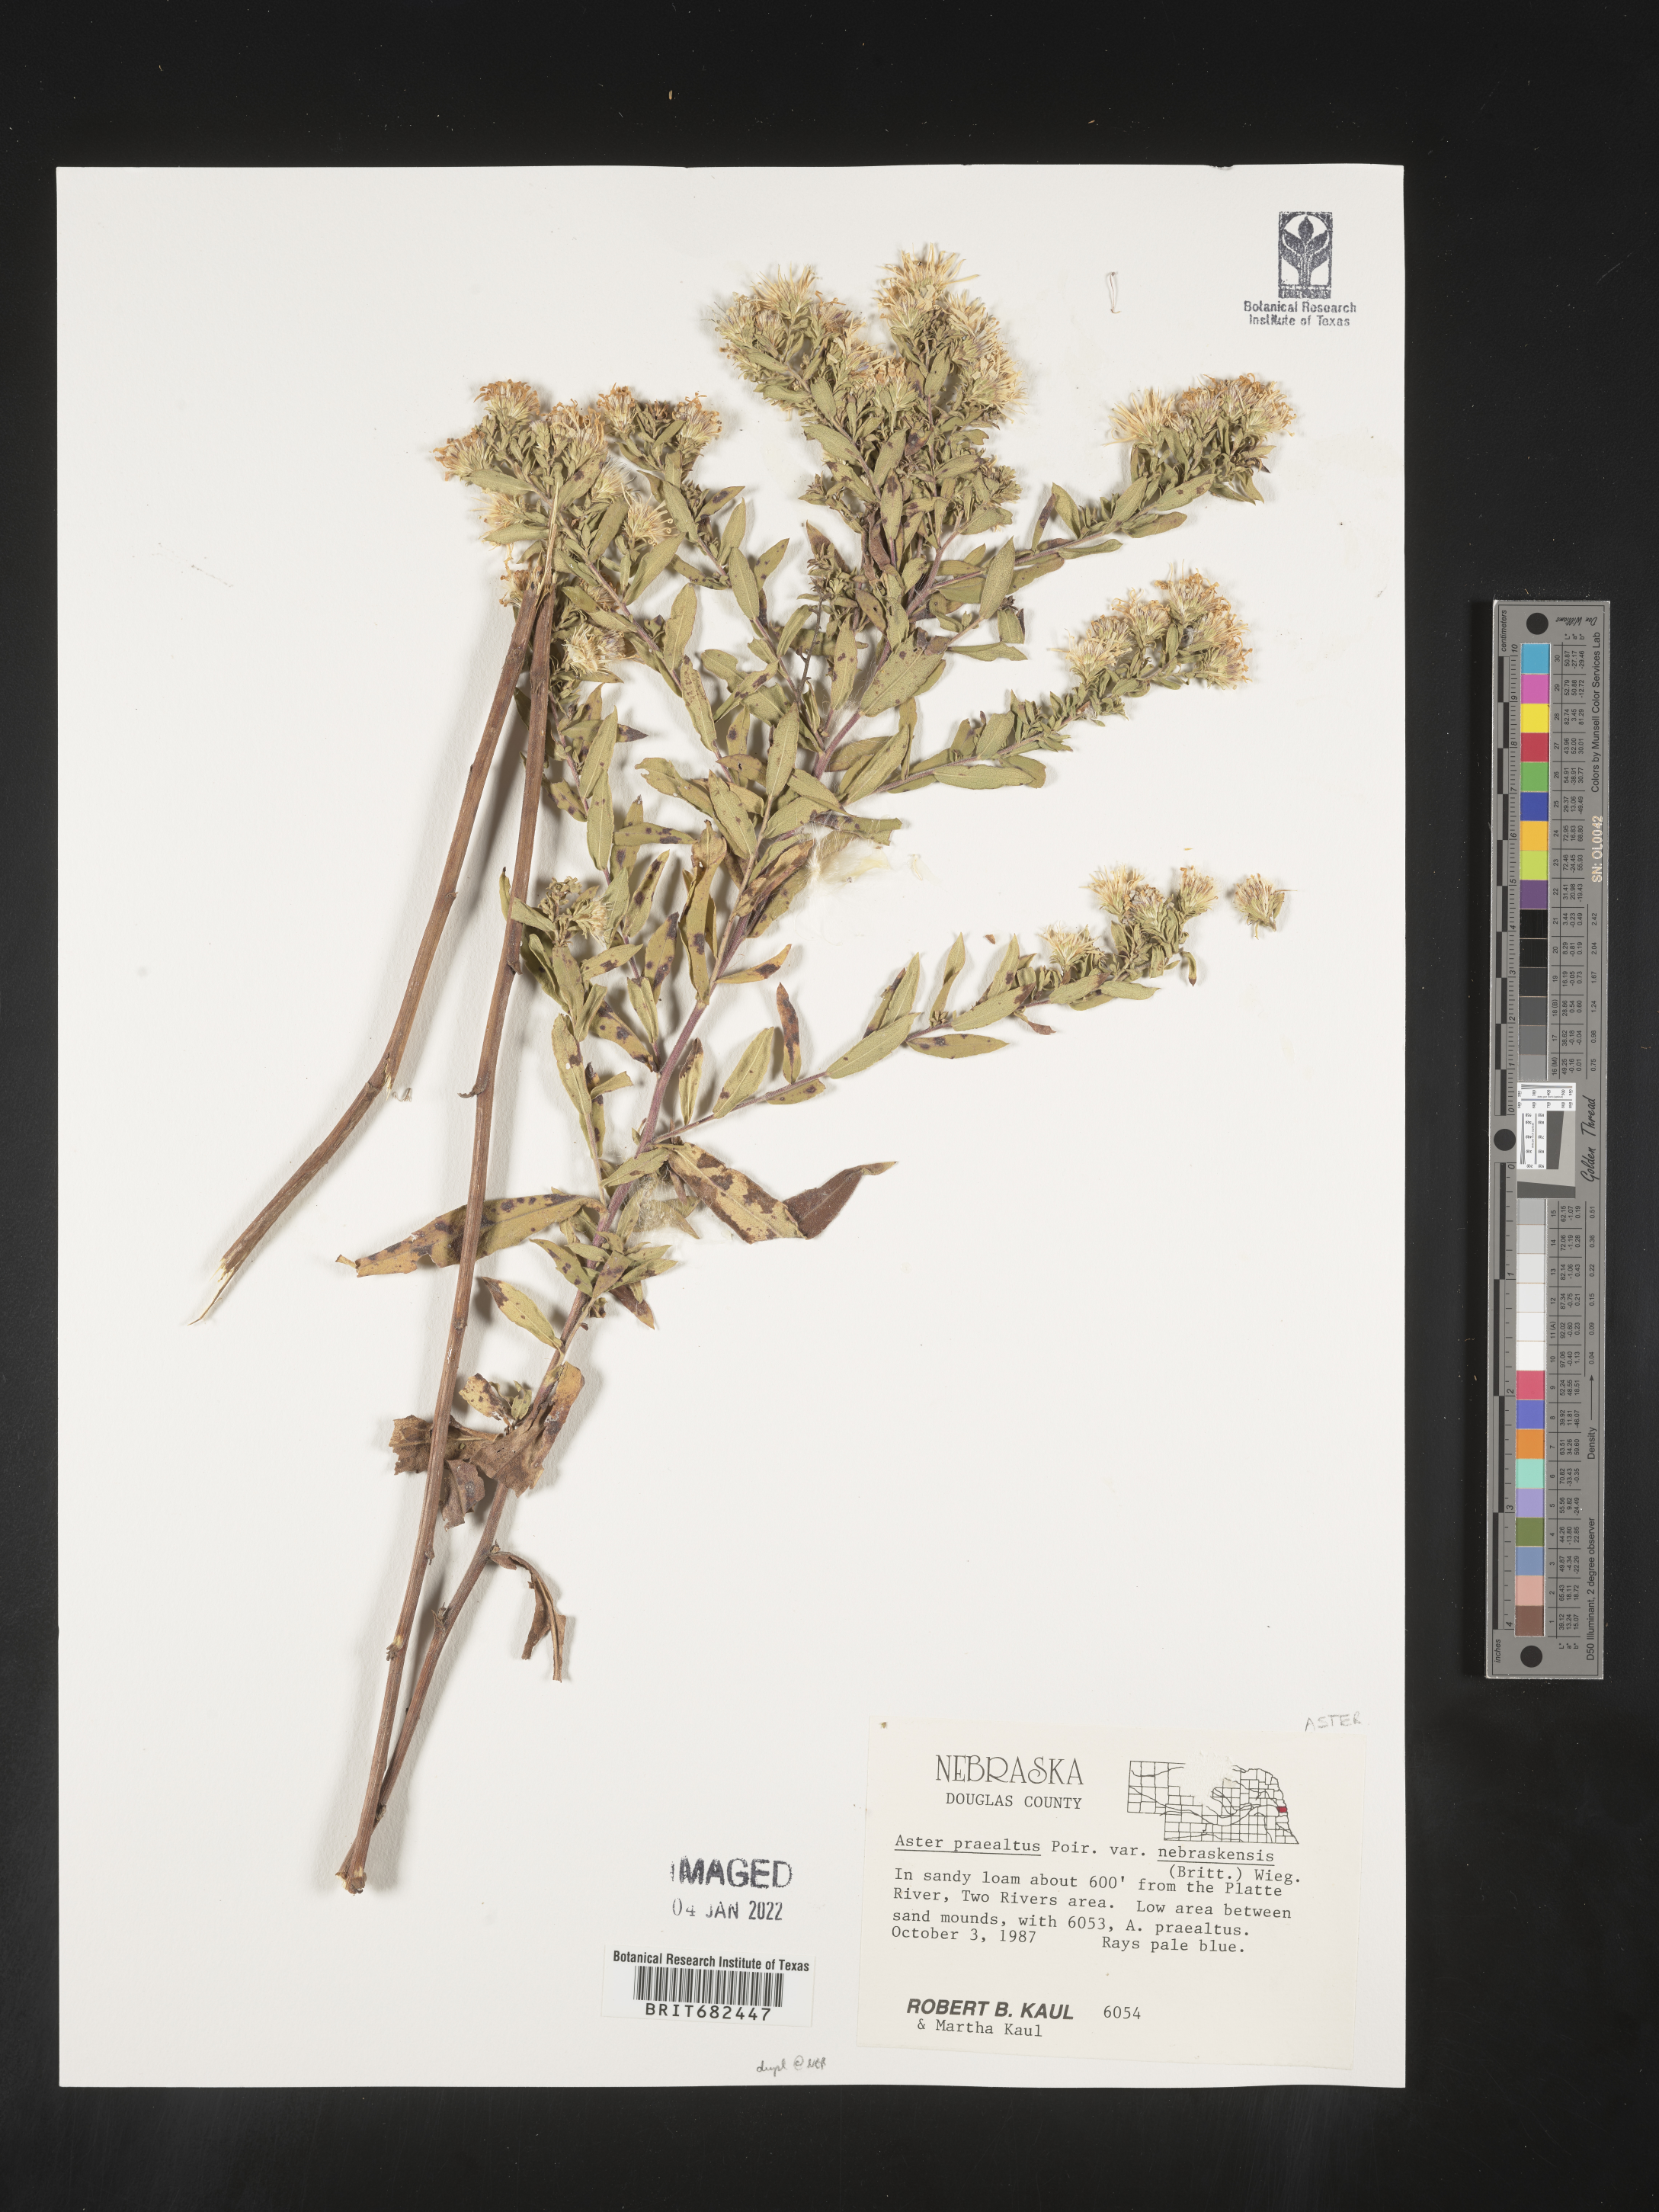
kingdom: Plantae
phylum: Tracheophyta
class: Magnoliopsida
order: Asterales
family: Asteraceae
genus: Aster
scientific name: Aster
